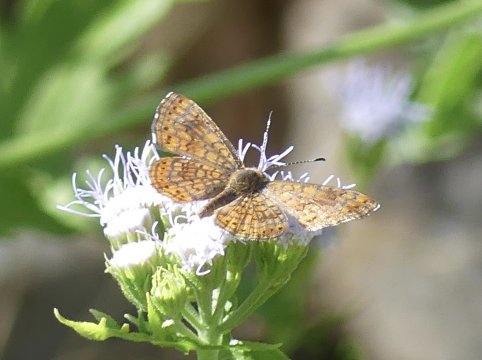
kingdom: Animalia
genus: Calephelis
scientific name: Calephelis nemesis
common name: Fatal Metalmark
